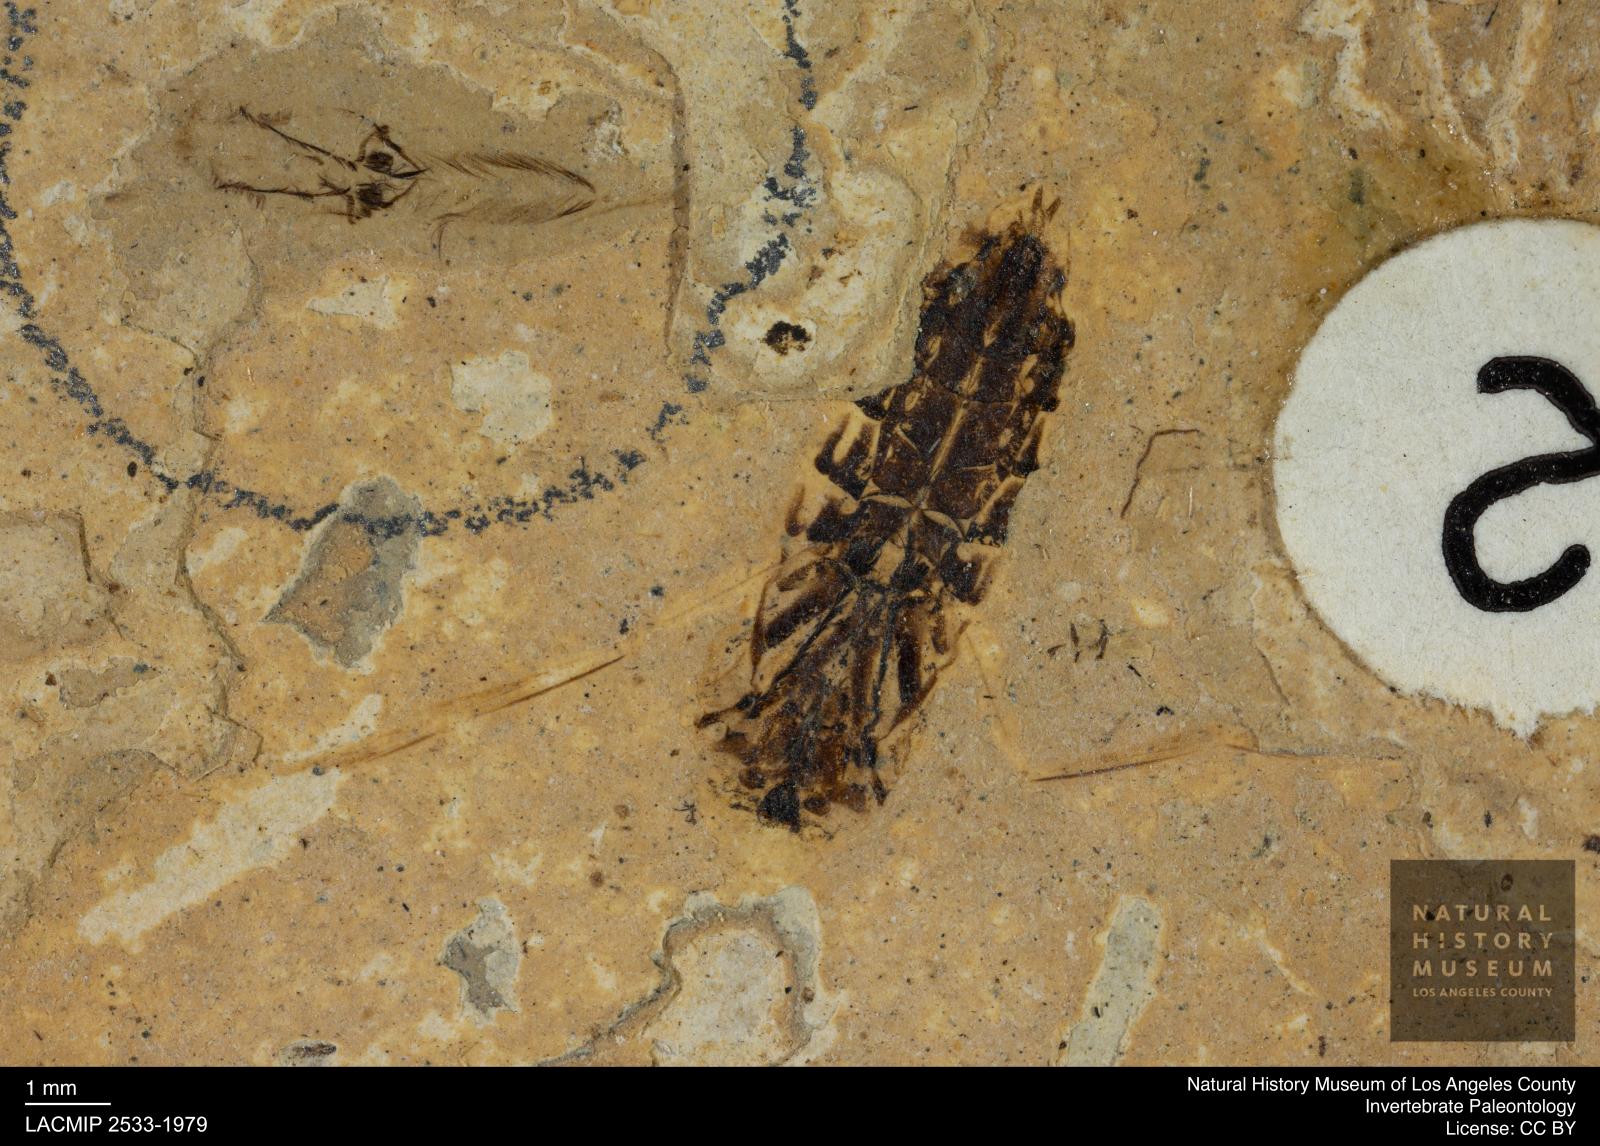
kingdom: Animalia
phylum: Arthropoda
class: Insecta
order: Hemiptera
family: Notonectidae
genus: Anisops
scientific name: Anisops Notonecta deichmuelleri
